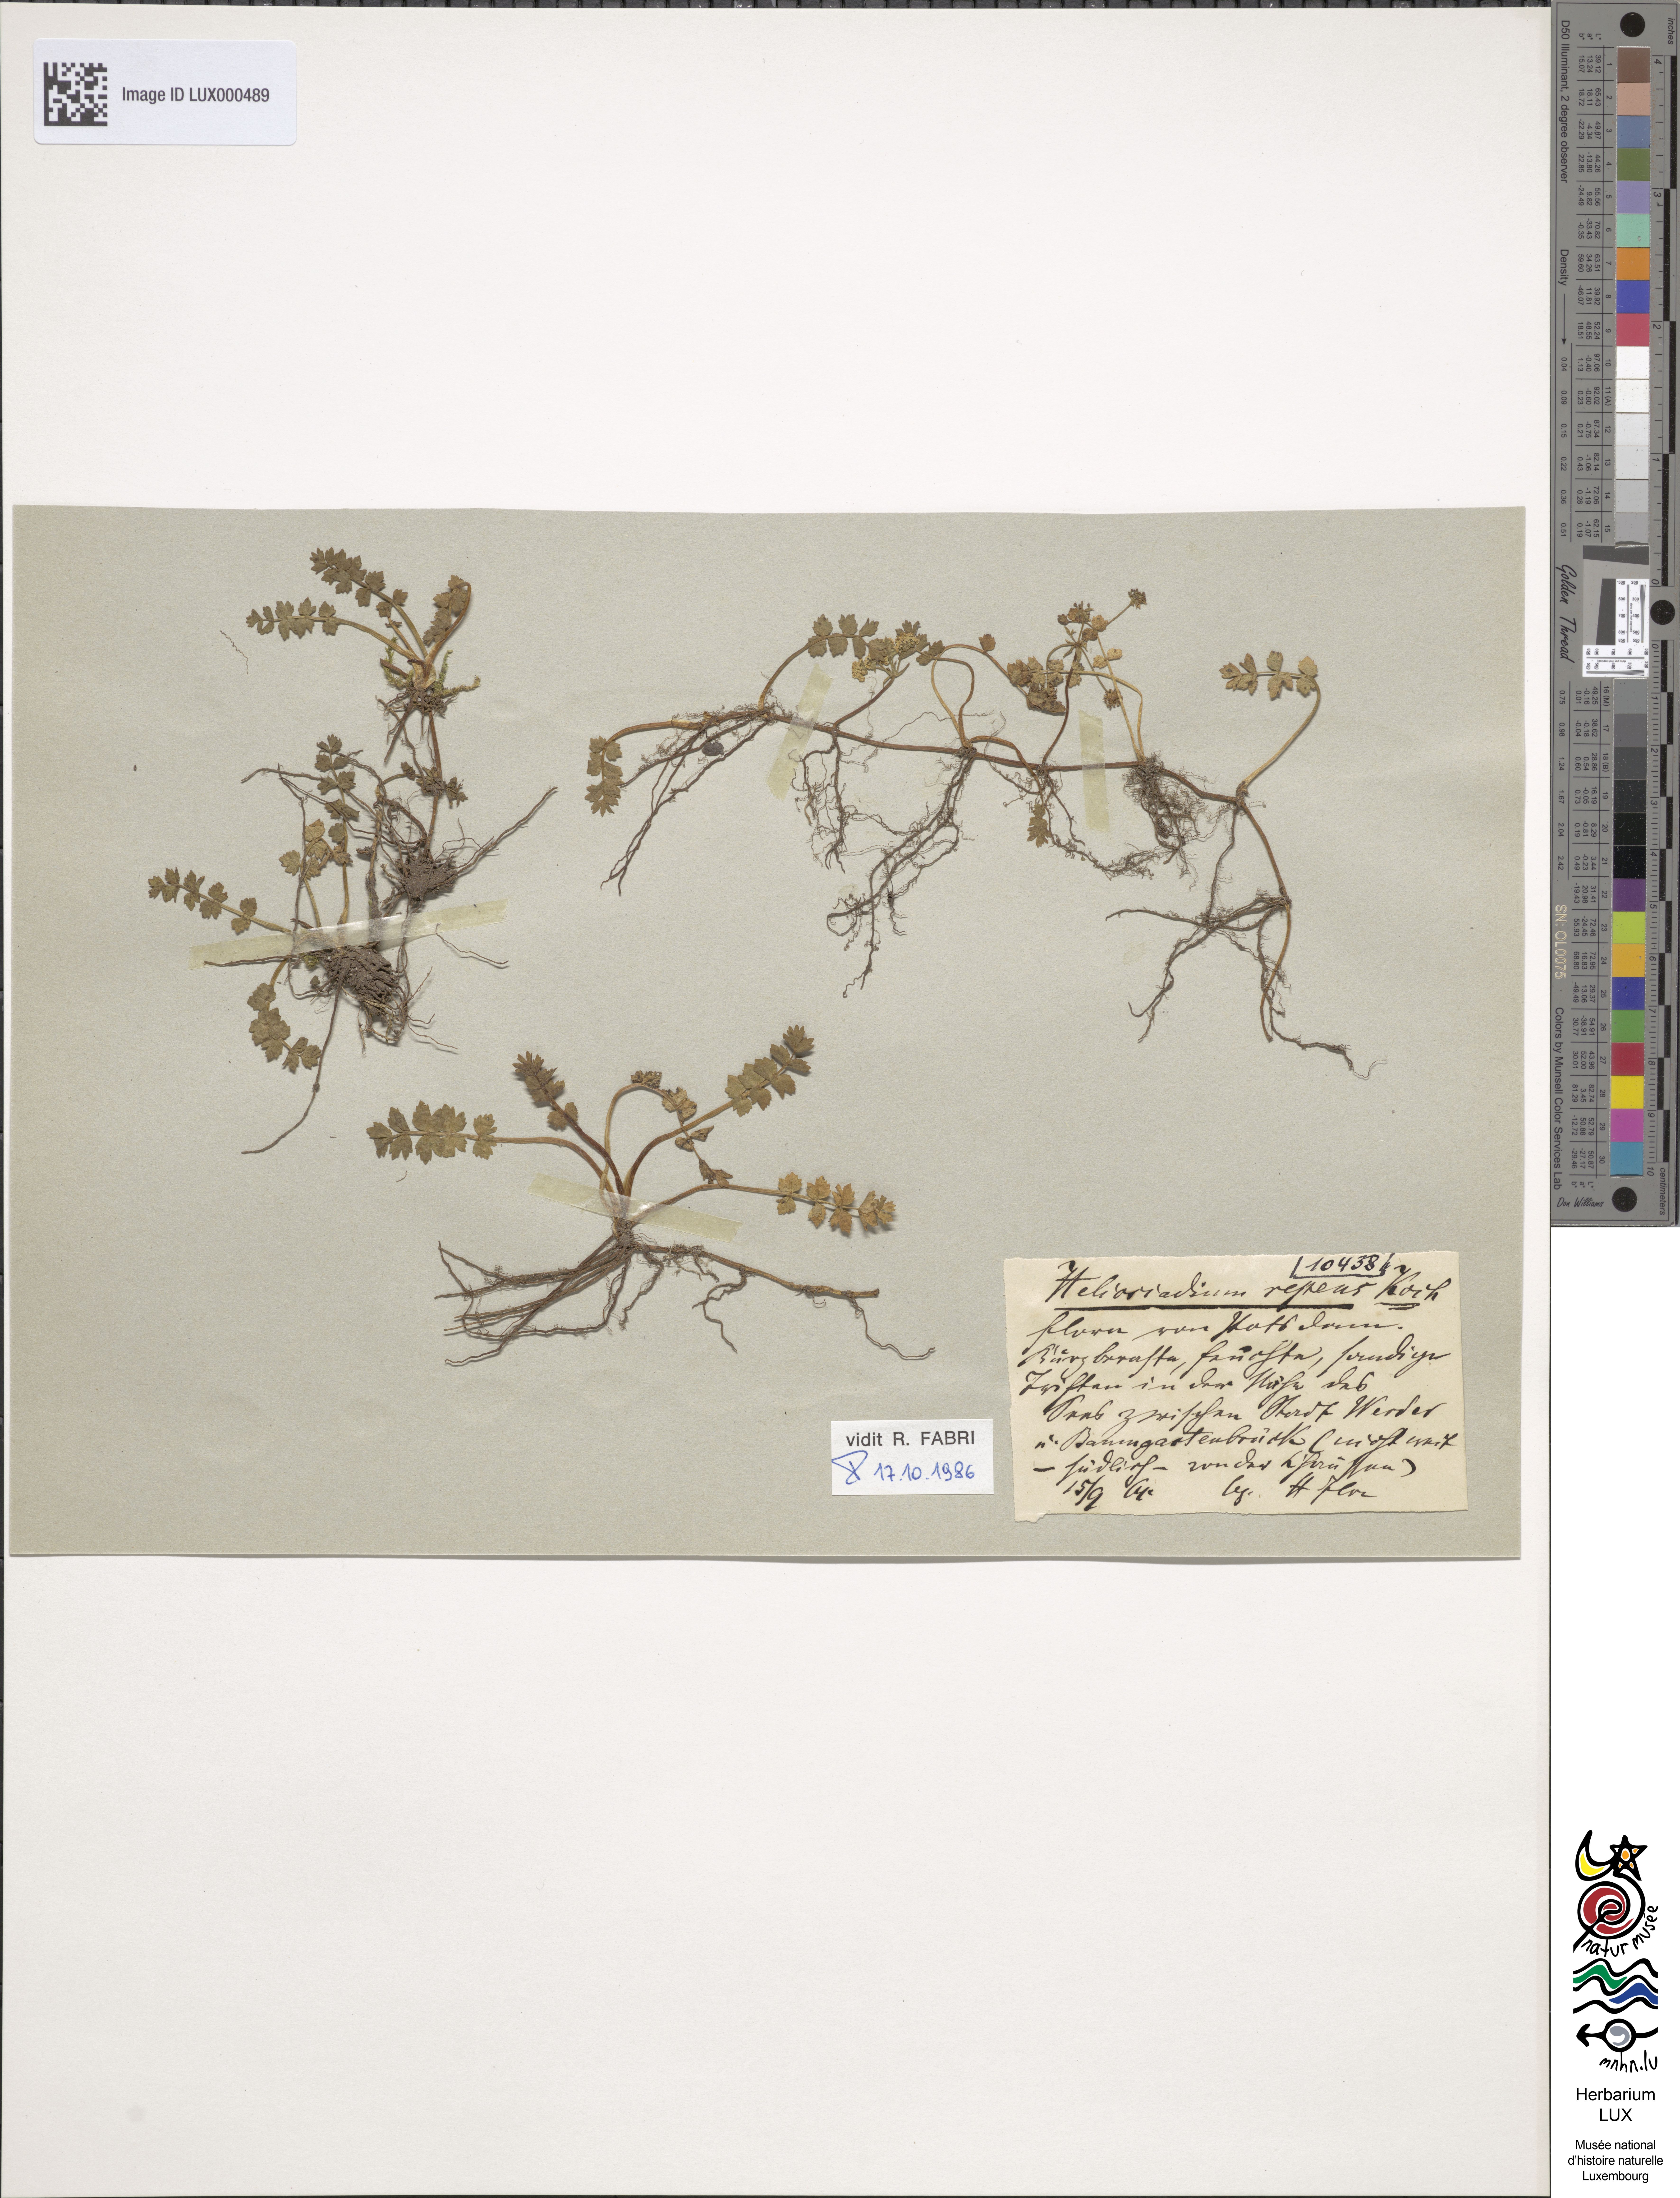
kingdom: Plantae
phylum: Tracheophyta
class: Magnoliopsida
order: Apiales
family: Apiaceae
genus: Helosciadium
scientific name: Helosciadium repens
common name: Creeping marshwort
